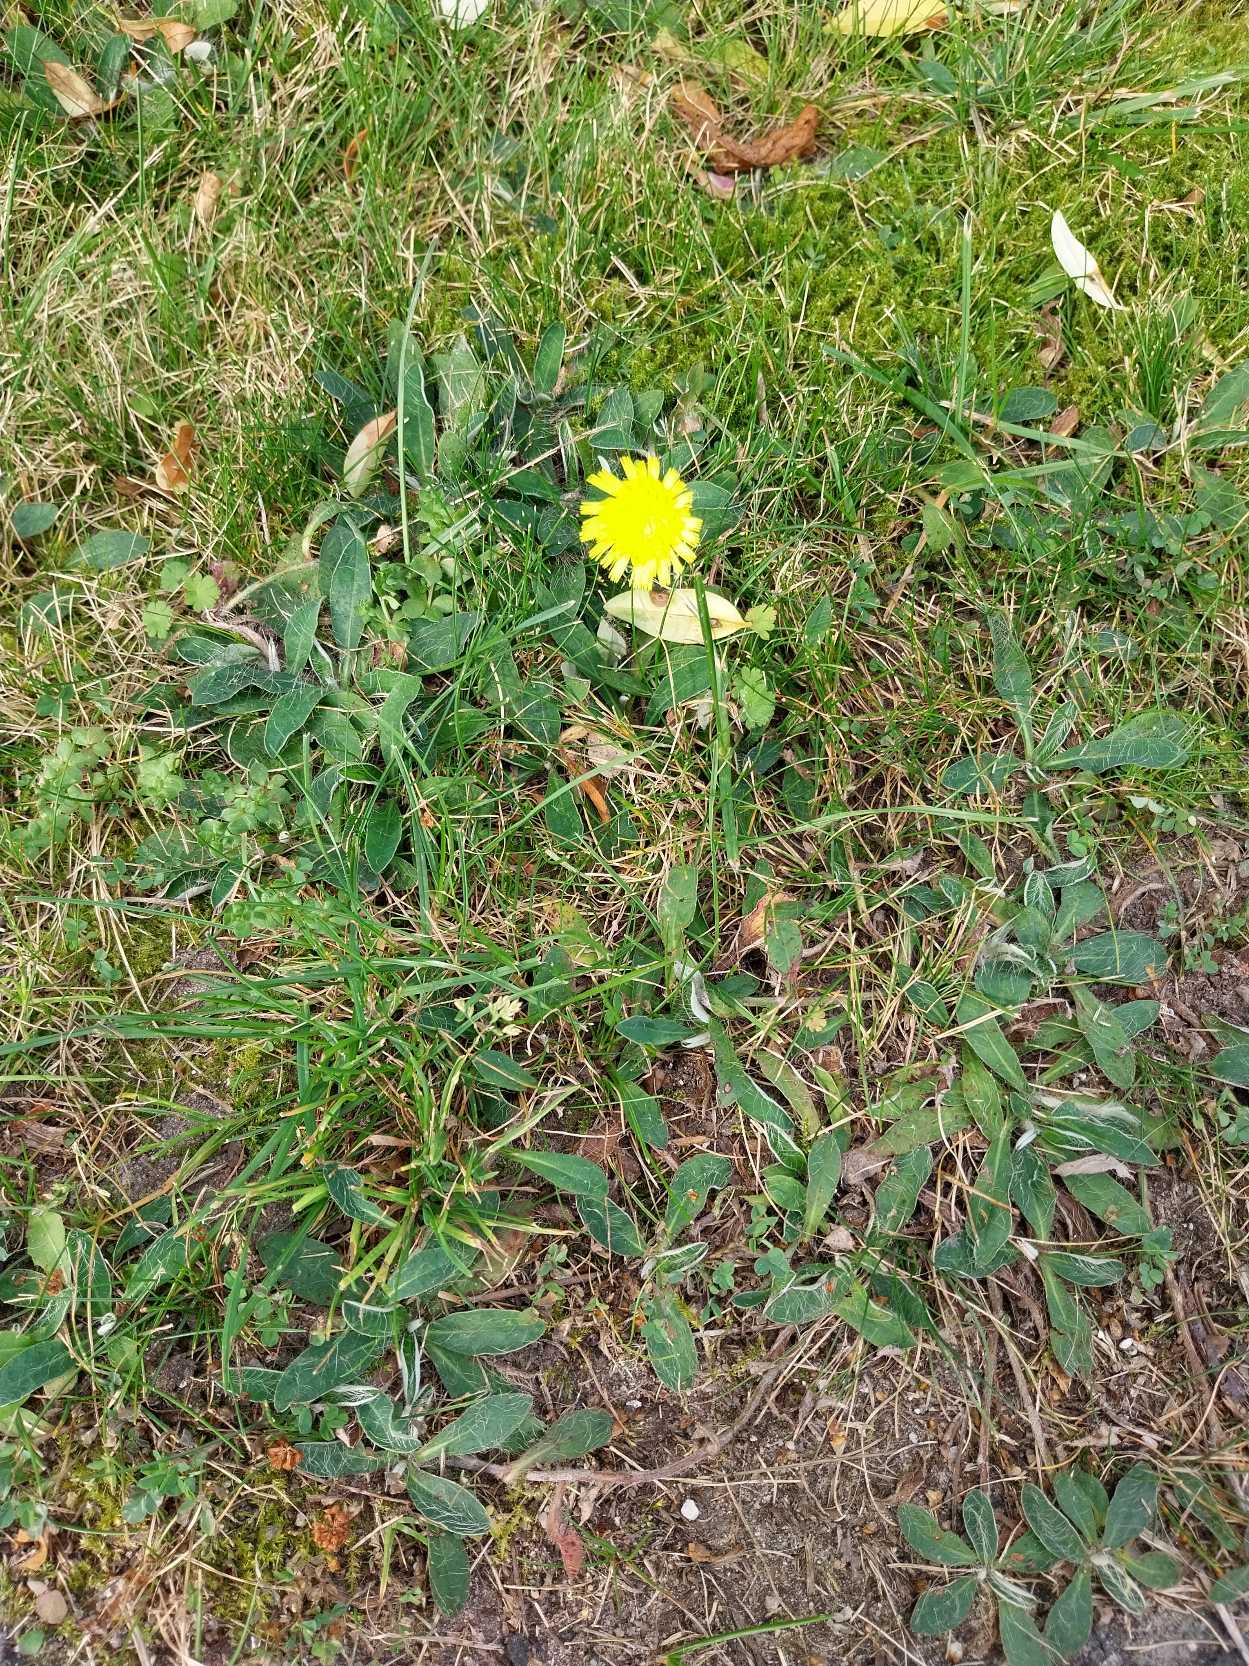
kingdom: Plantae
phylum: Tracheophyta
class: Magnoliopsida
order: Asterales
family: Asteraceae
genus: Pilosella
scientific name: Pilosella officinarum
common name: Håret høgeurt
